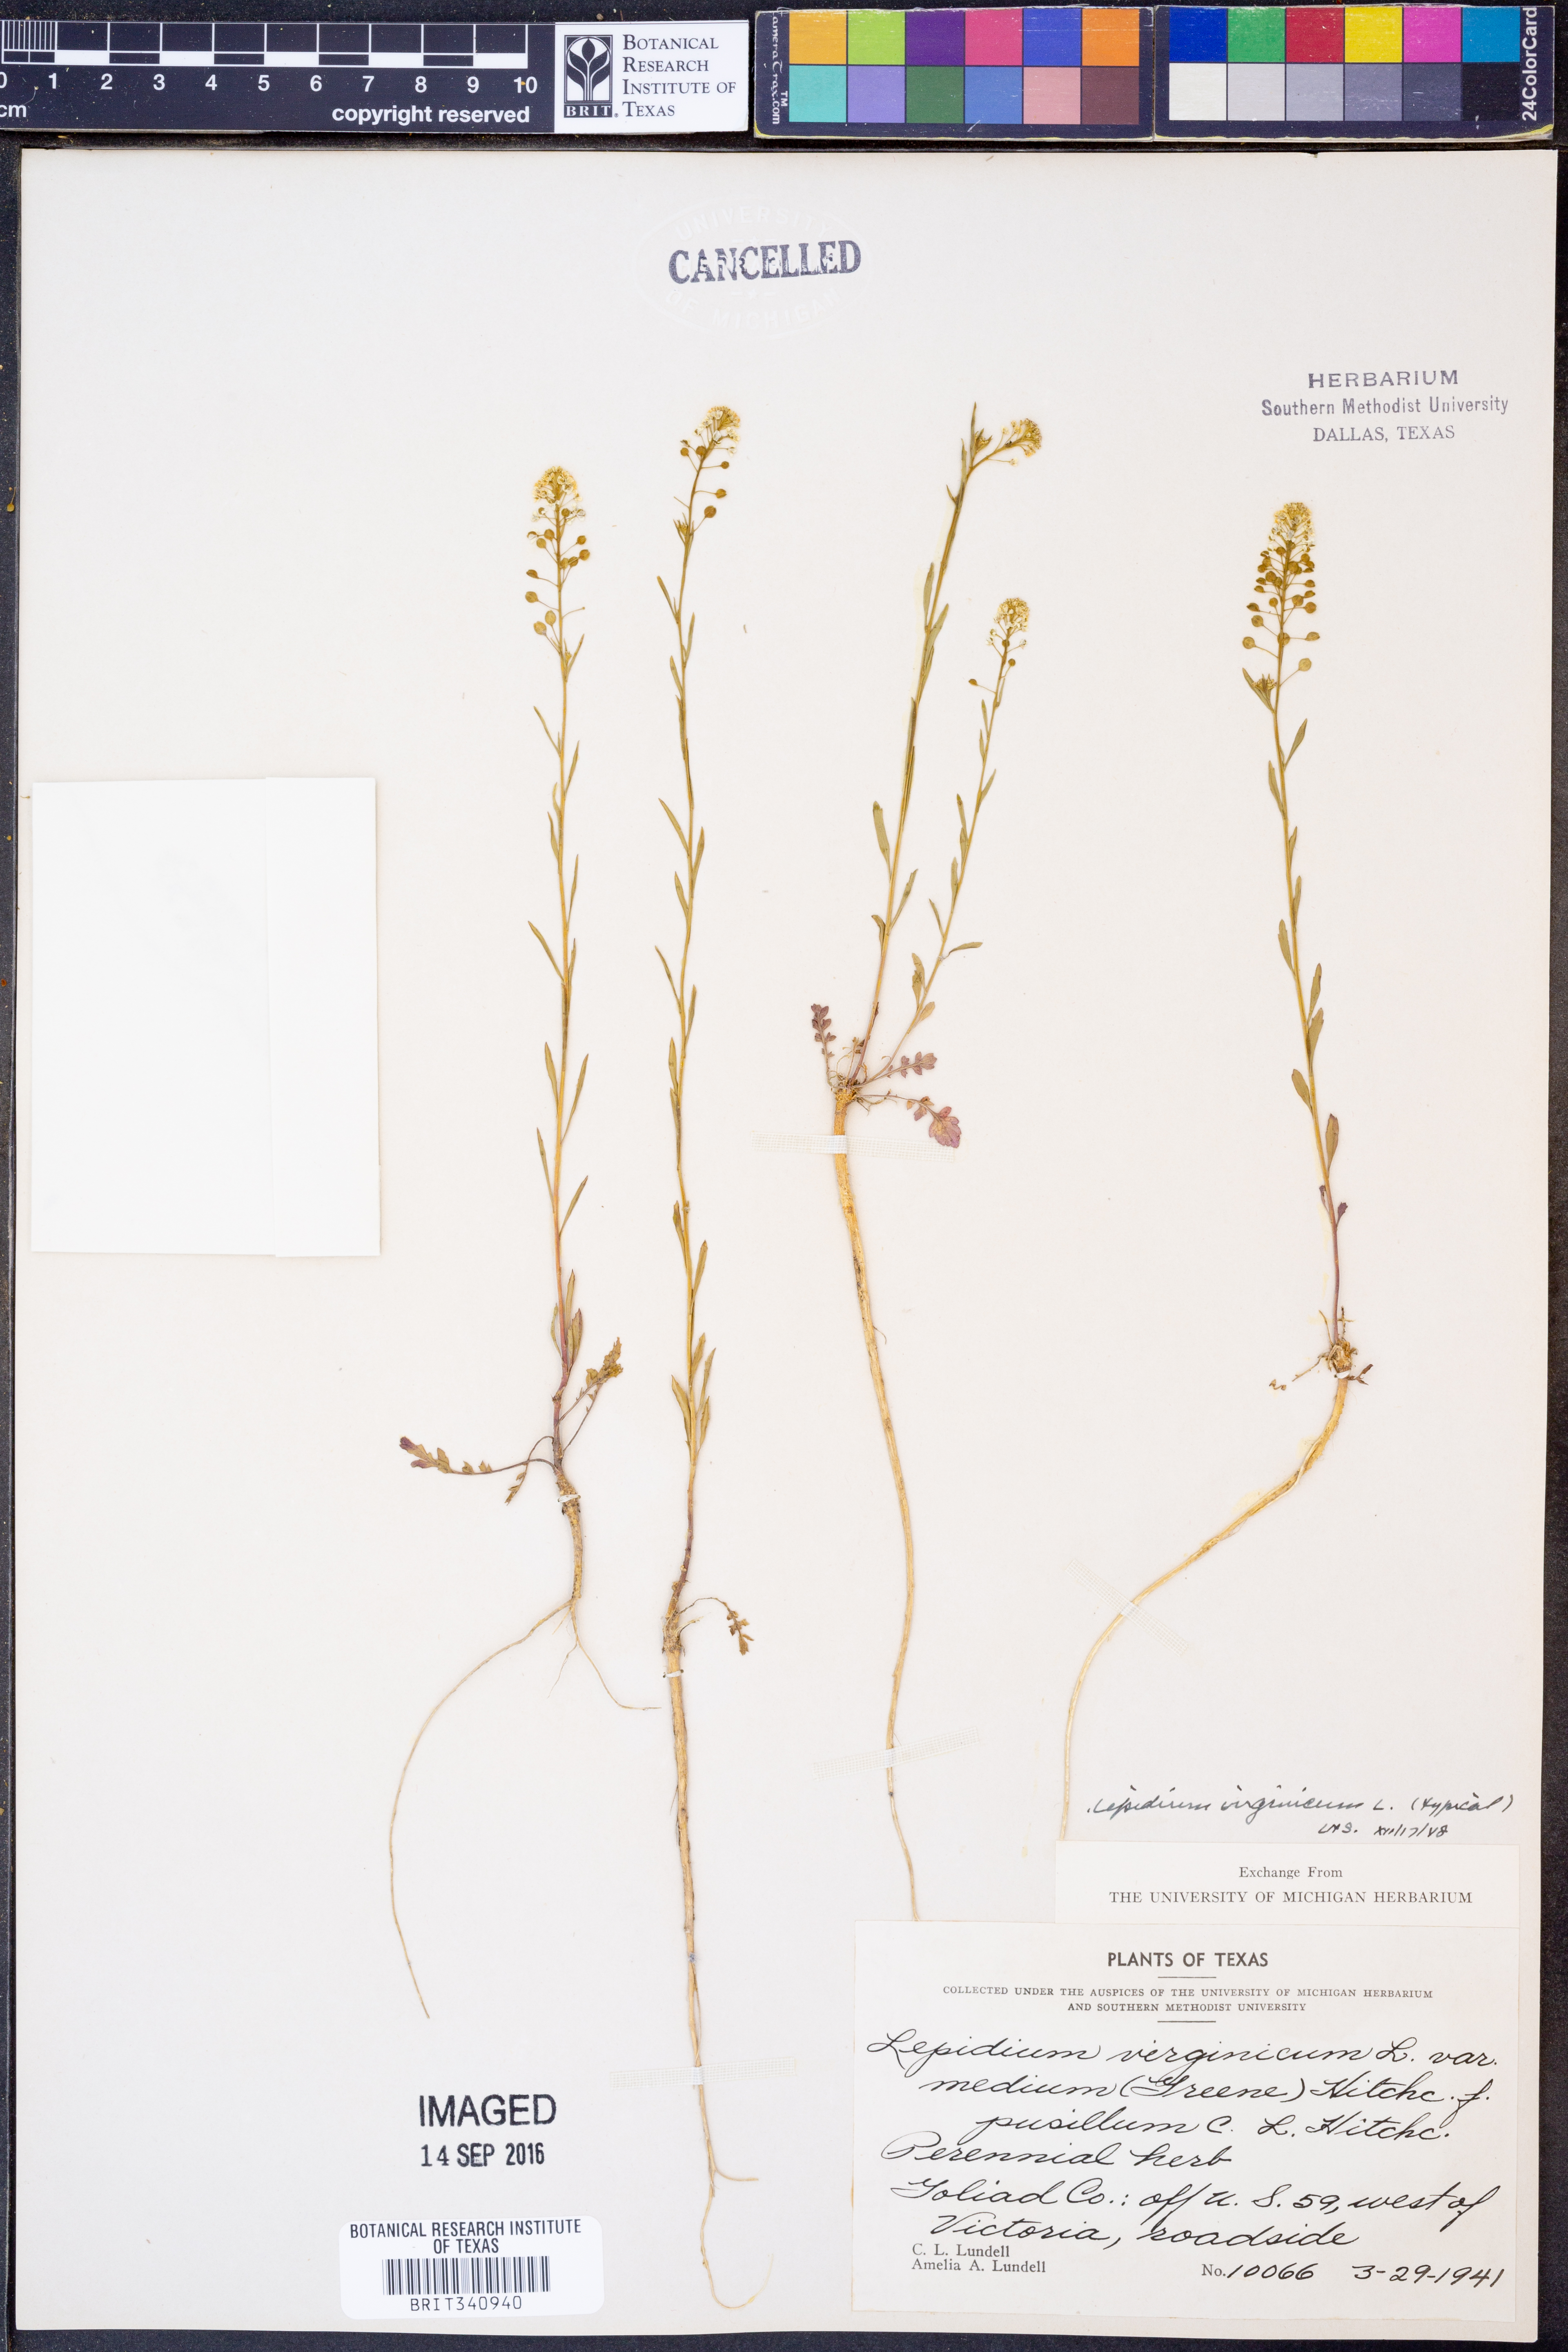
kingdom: Plantae
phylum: Tracheophyta
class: Magnoliopsida
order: Brassicales
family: Brassicaceae
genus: Lepidium
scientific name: Lepidium virginicum
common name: Least pepperwort
